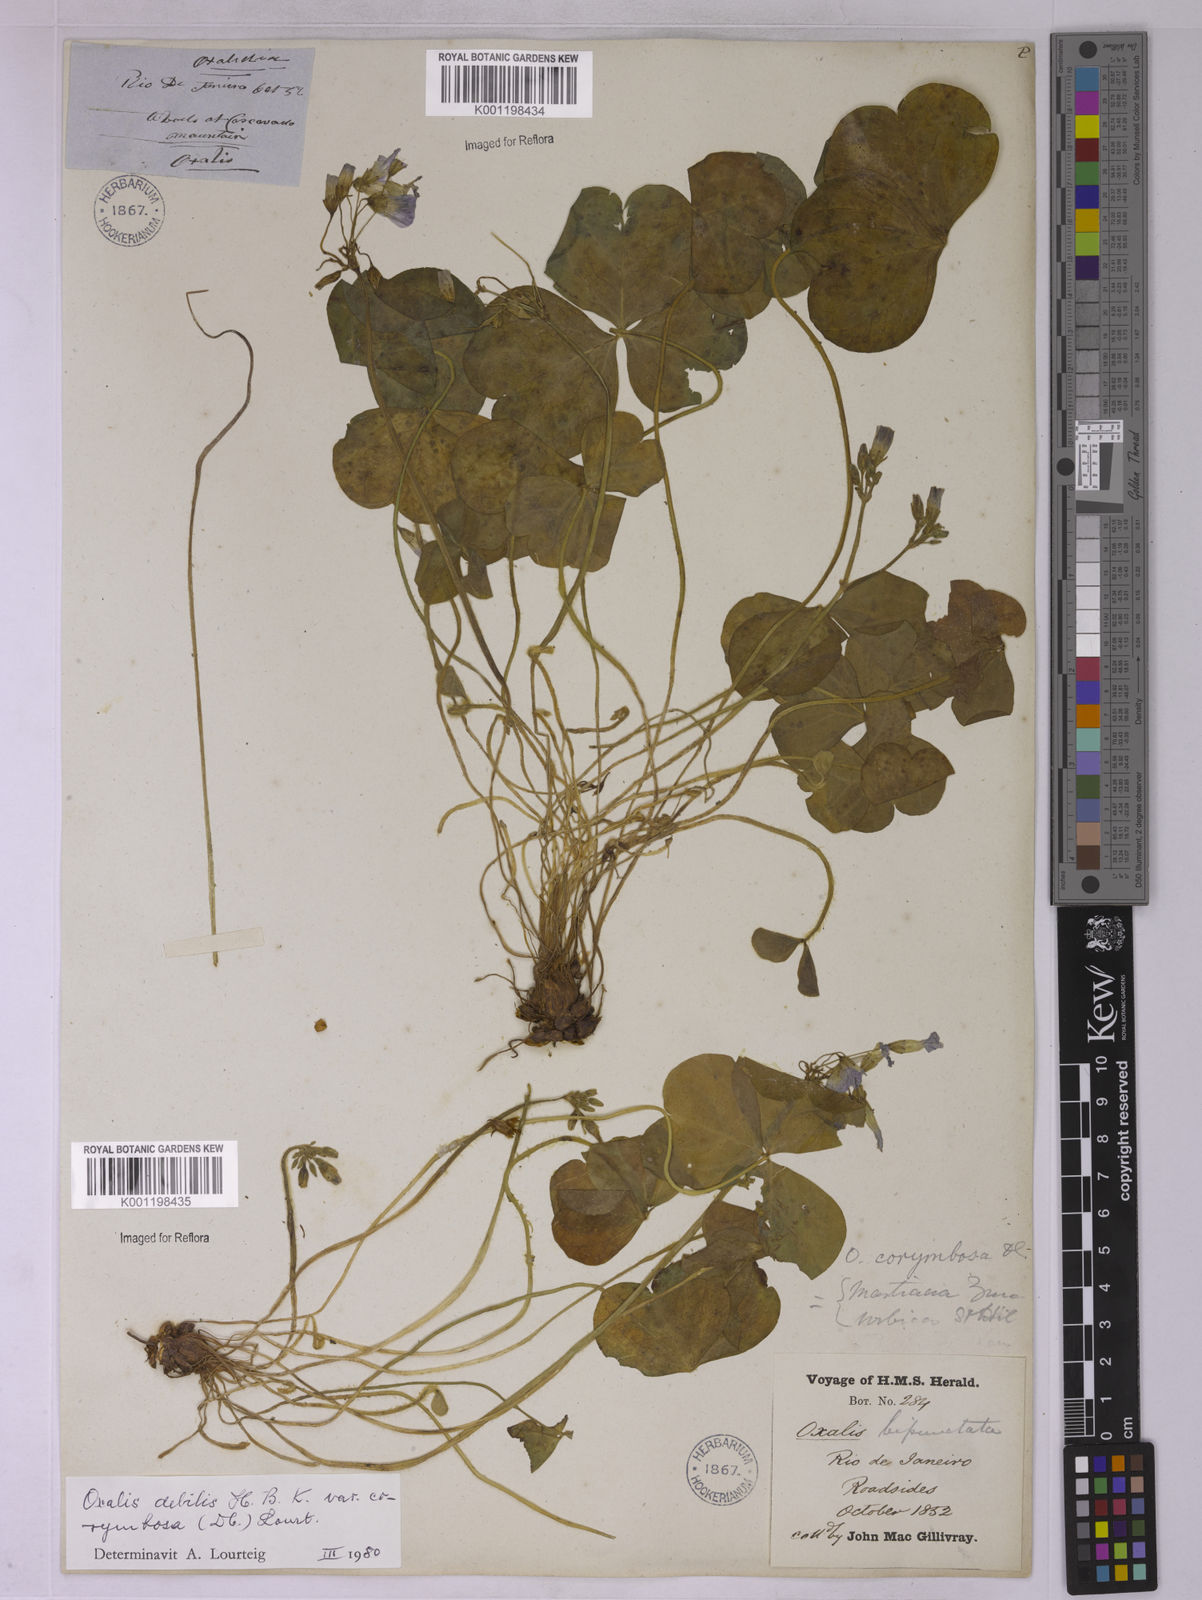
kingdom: Plantae
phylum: Tracheophyta
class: Magnoliopsida
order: Oxalidales
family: Oxalidaceae
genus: Oxalis
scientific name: Oxalis debilis
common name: Large-flowered pink-sorrel
